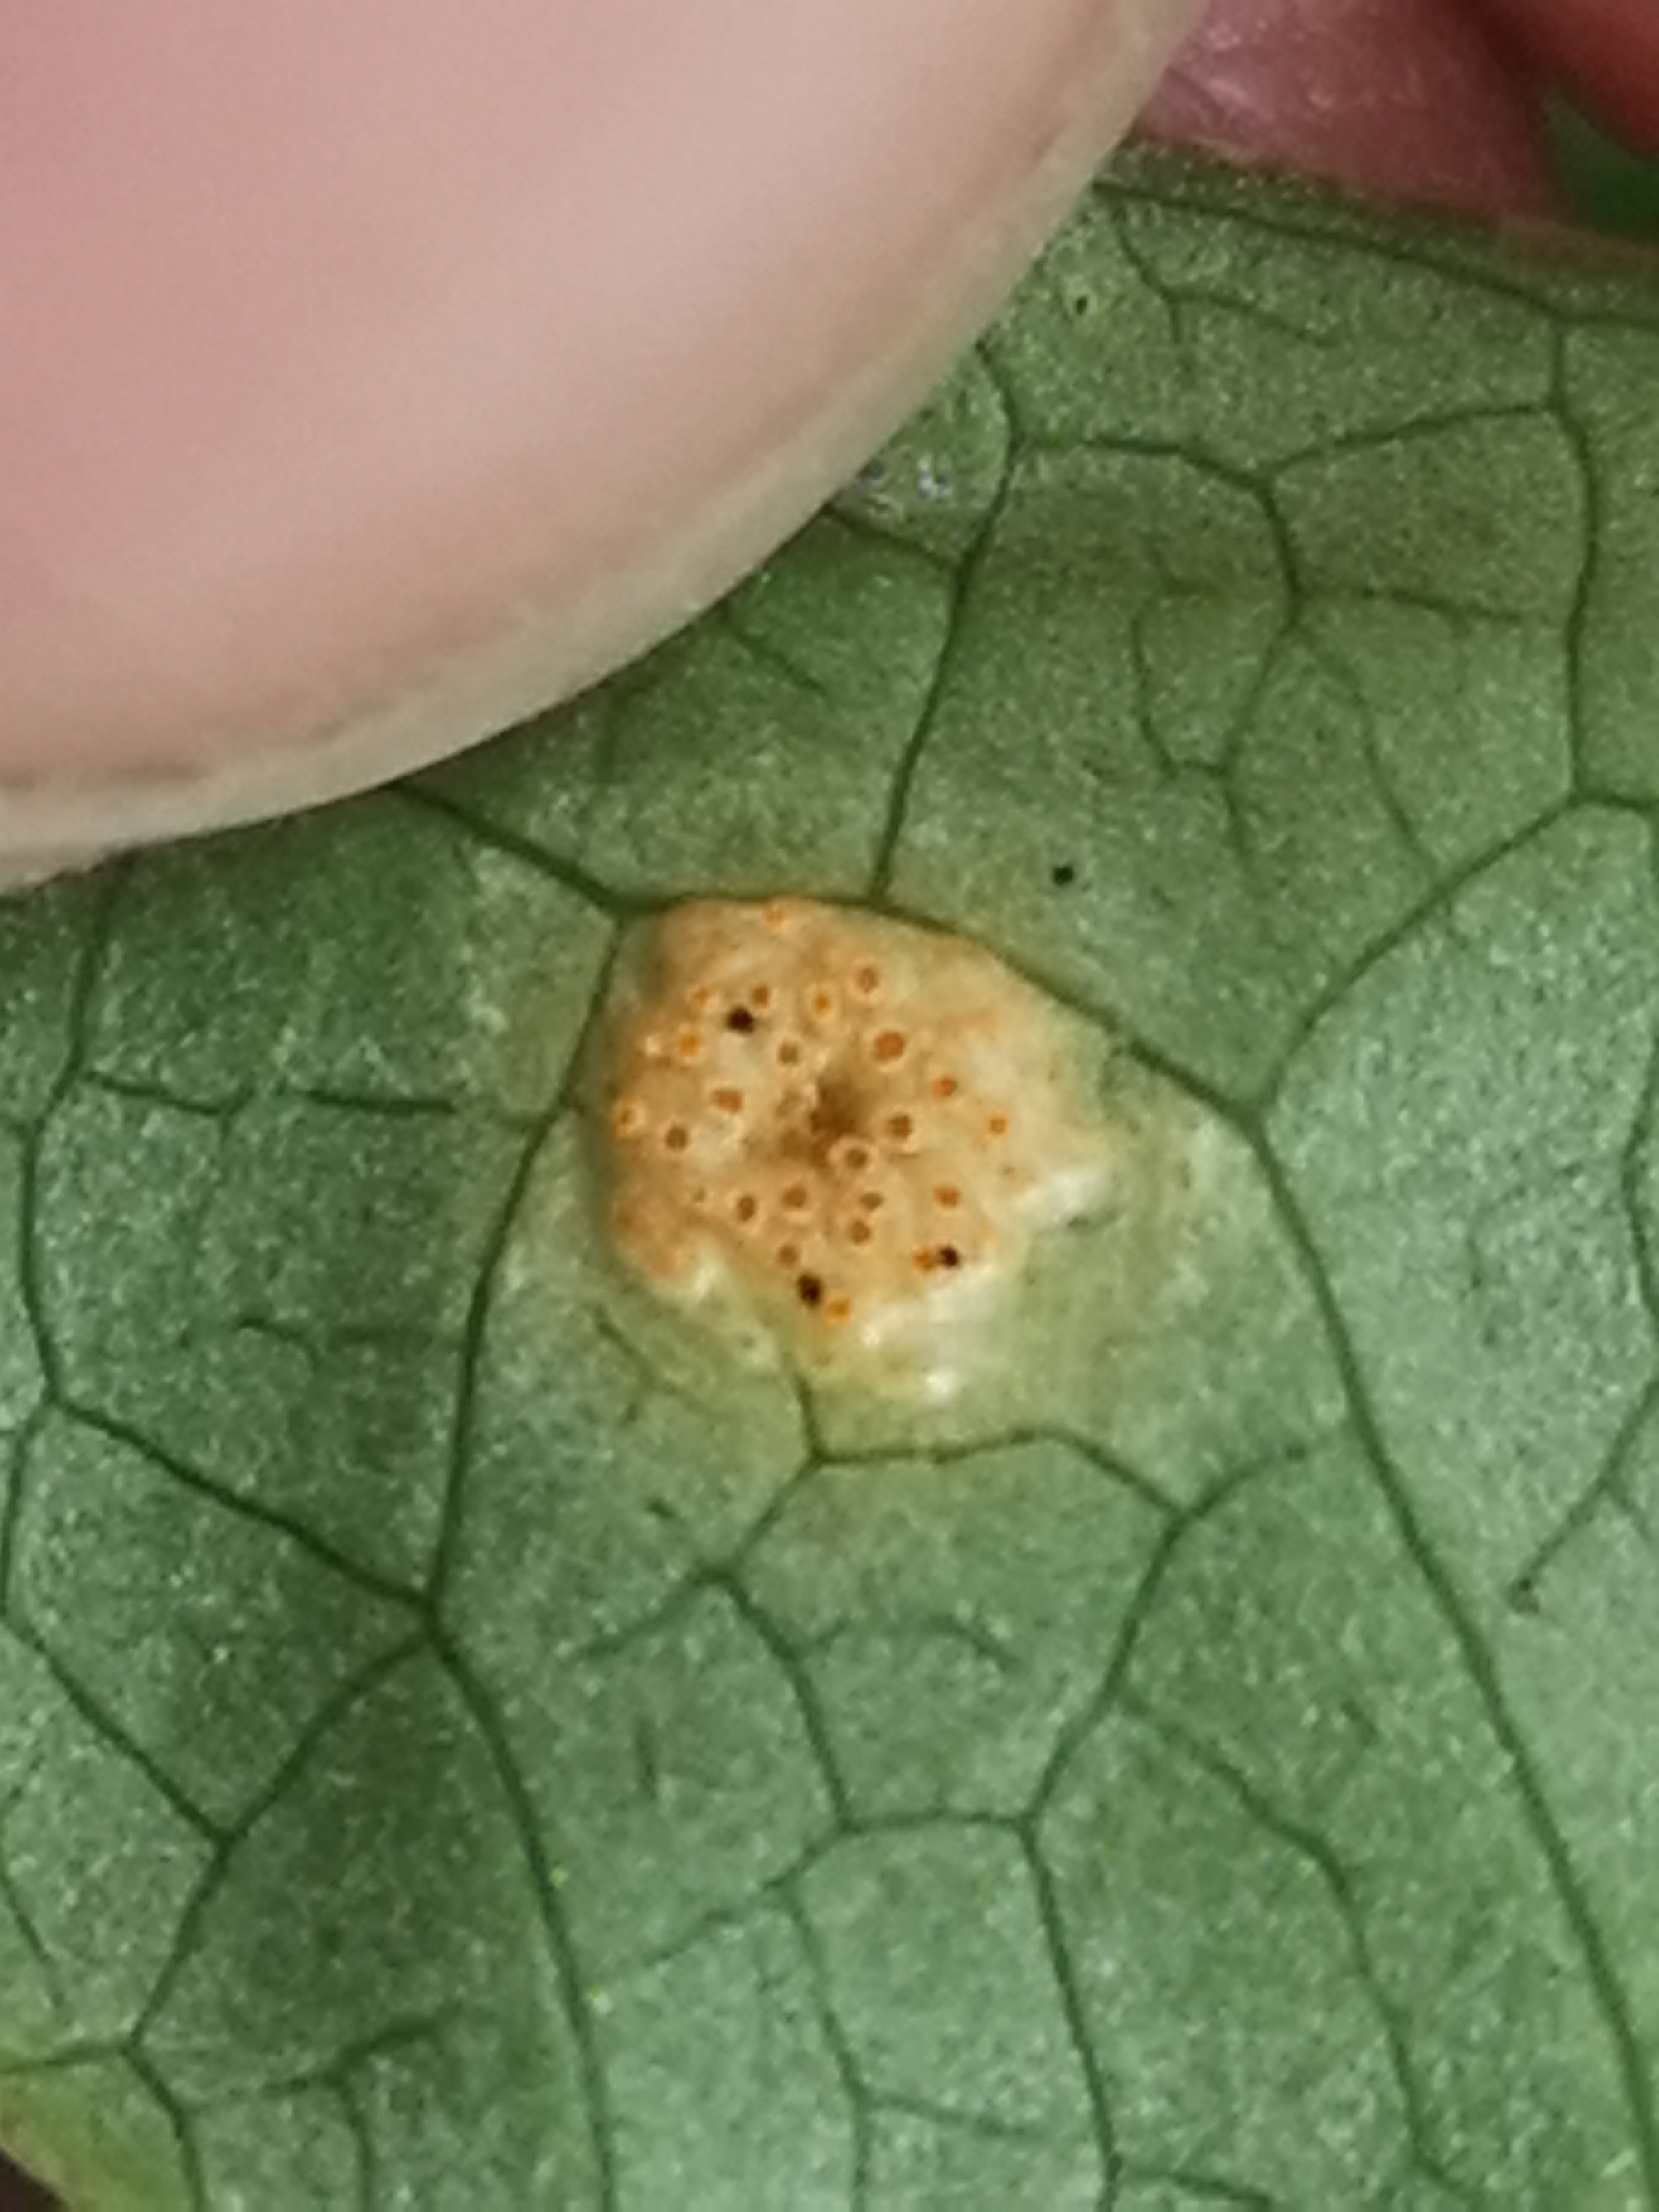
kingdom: Fungi
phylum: Basidiomycota
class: Pucciniomycetes
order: Pucciniales
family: Pucciniaceae
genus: Puccinia
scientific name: Puccinia sessilis
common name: Arum rust
